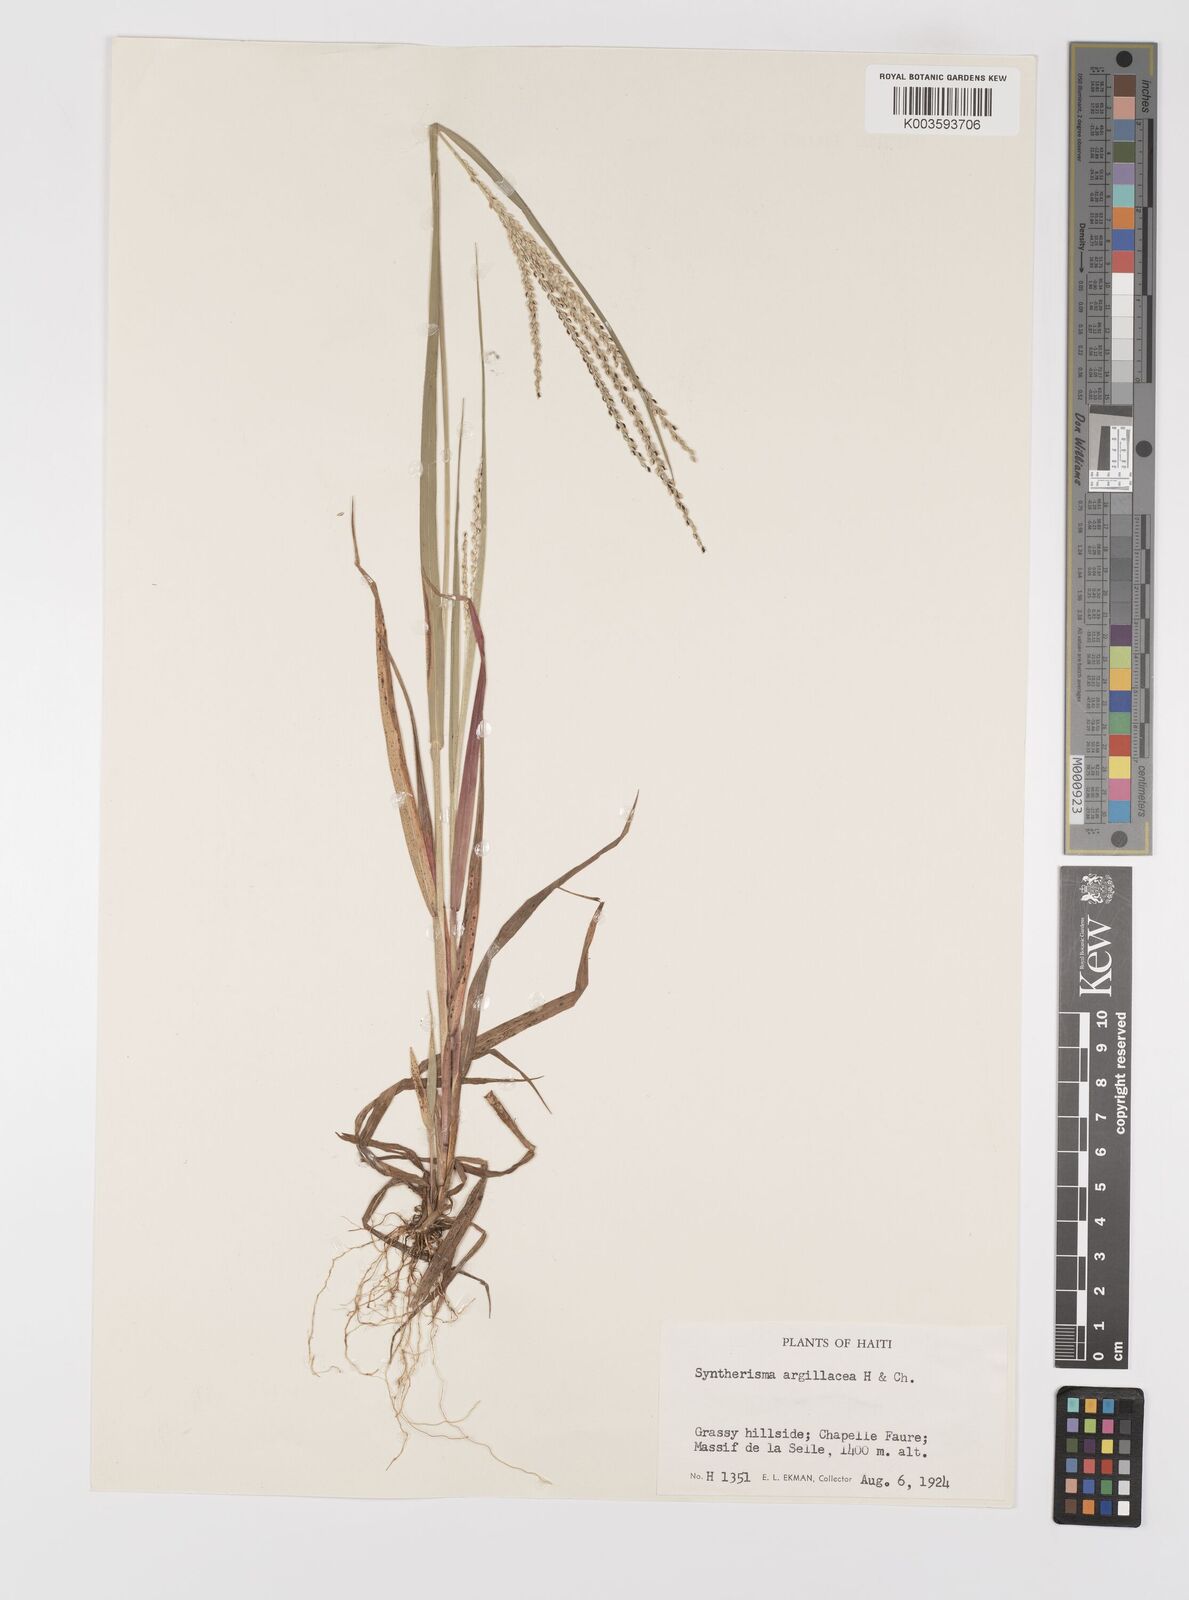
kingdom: Plantae
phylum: Tracheophyta
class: Liliopsida
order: Poales
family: Poaceae
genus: Digitaria
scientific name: Digitaria argillacea
